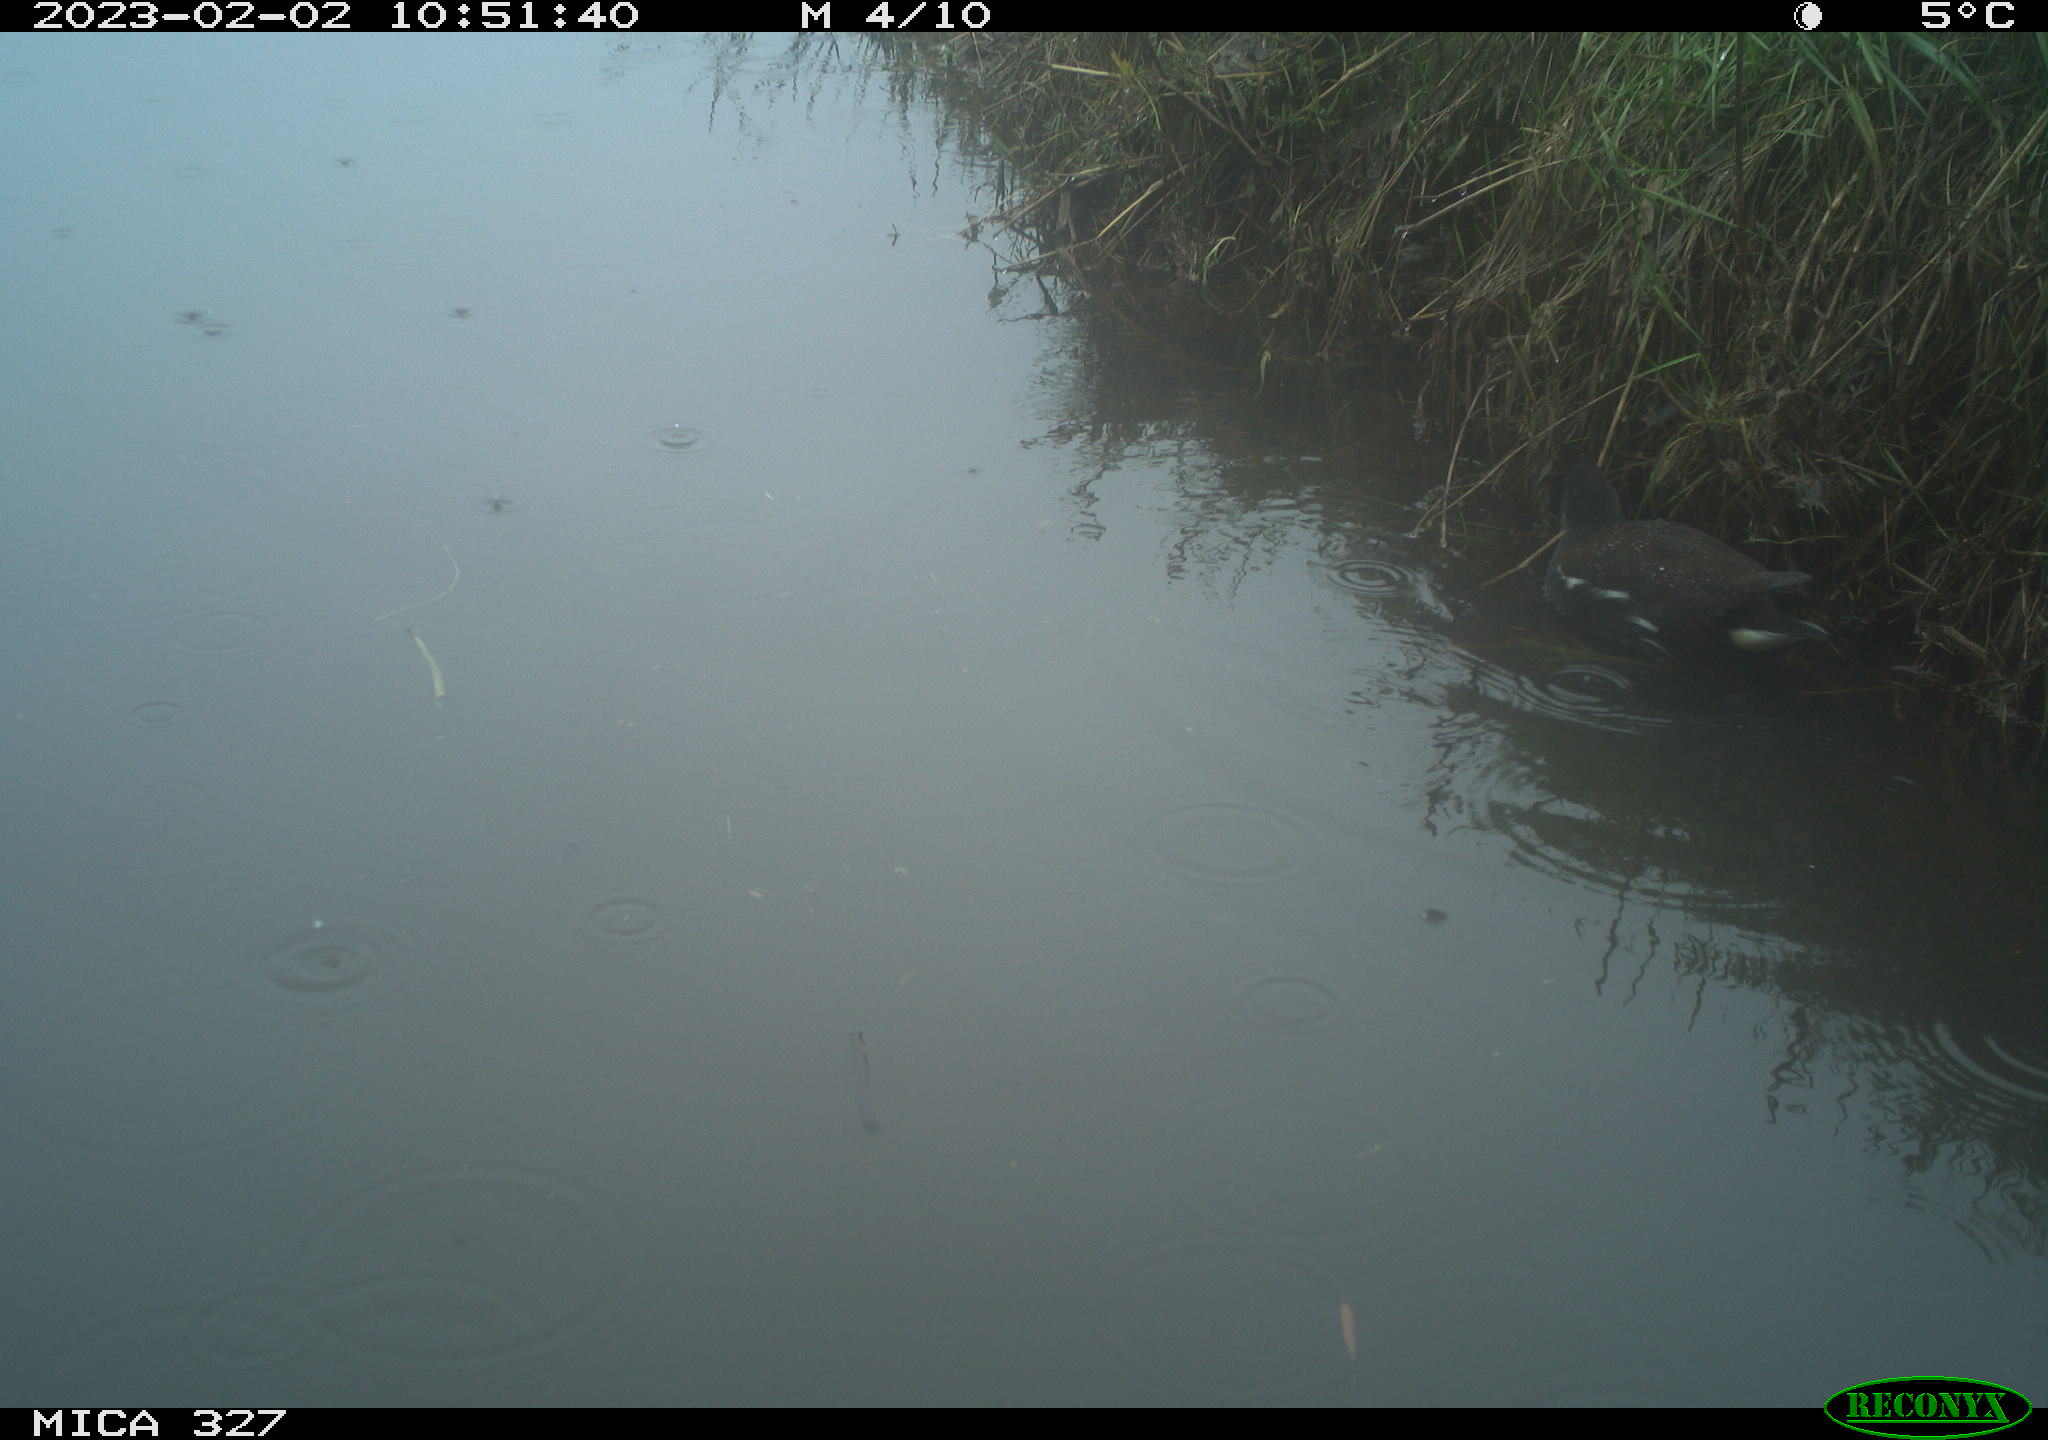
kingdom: Animalia
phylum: Chordata
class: Aves
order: Gruiformes
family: Rallidae
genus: Gallinula
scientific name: Gallinula chloropus
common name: Common moorhen
